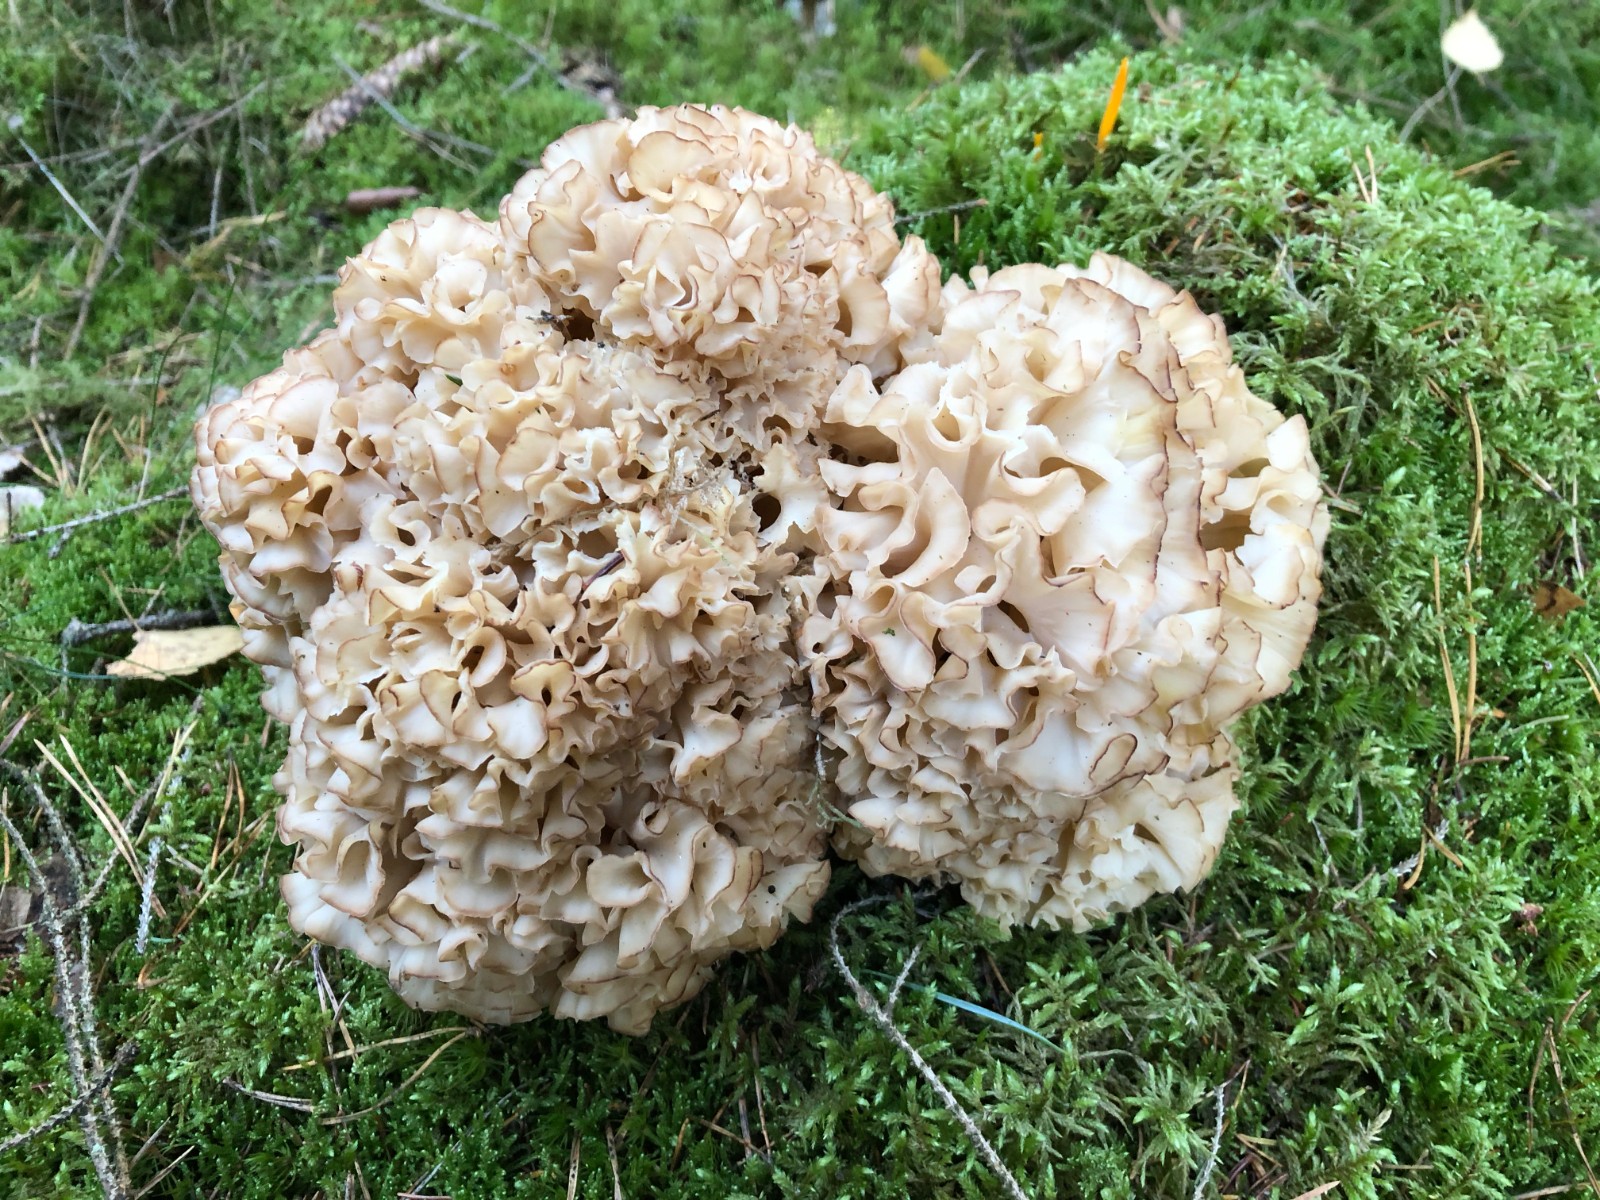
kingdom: Fungi
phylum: Basidiomycota
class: Agaricomycetes
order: Polyporales
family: Sparassidaceae
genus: Sparassis
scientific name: Sparassis crispa
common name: kruset blomkålssvamp
